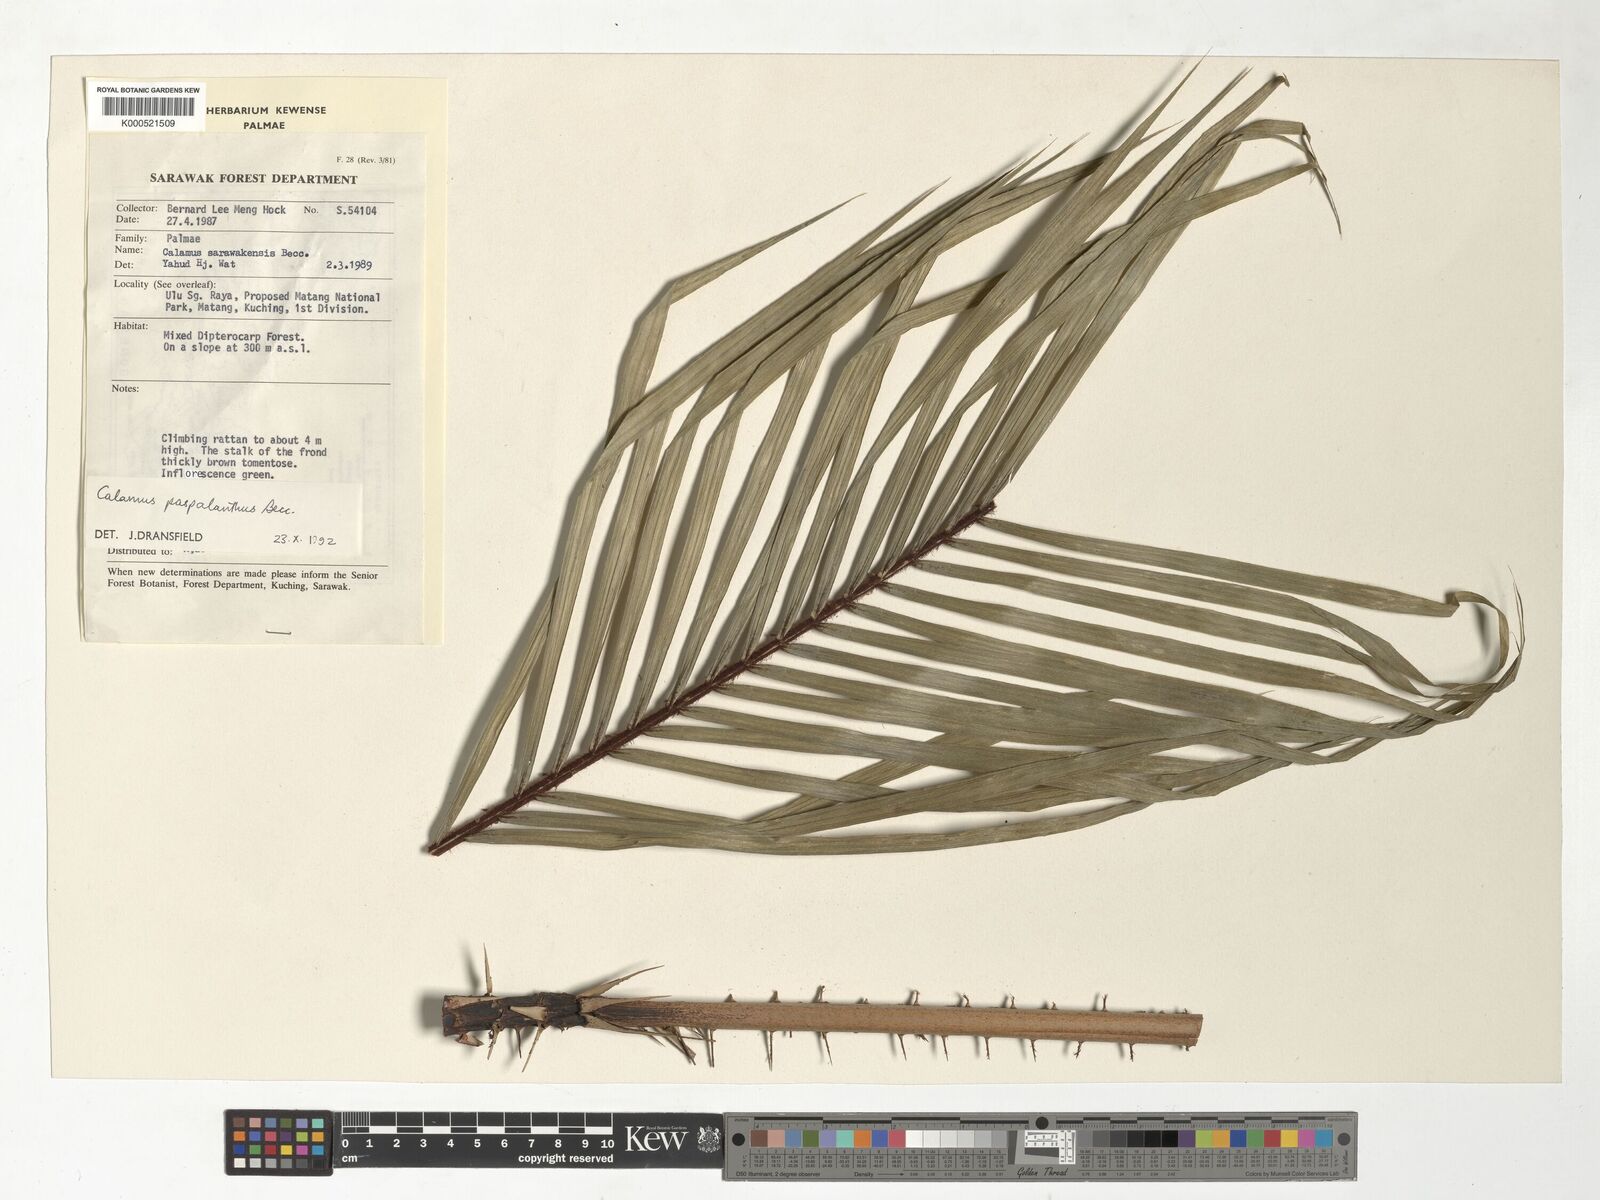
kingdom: Plantae
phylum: Tracheophyta
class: Liliopsida
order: Arecales
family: Arecaceae
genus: Calamus
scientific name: Calamus paspalanthus
